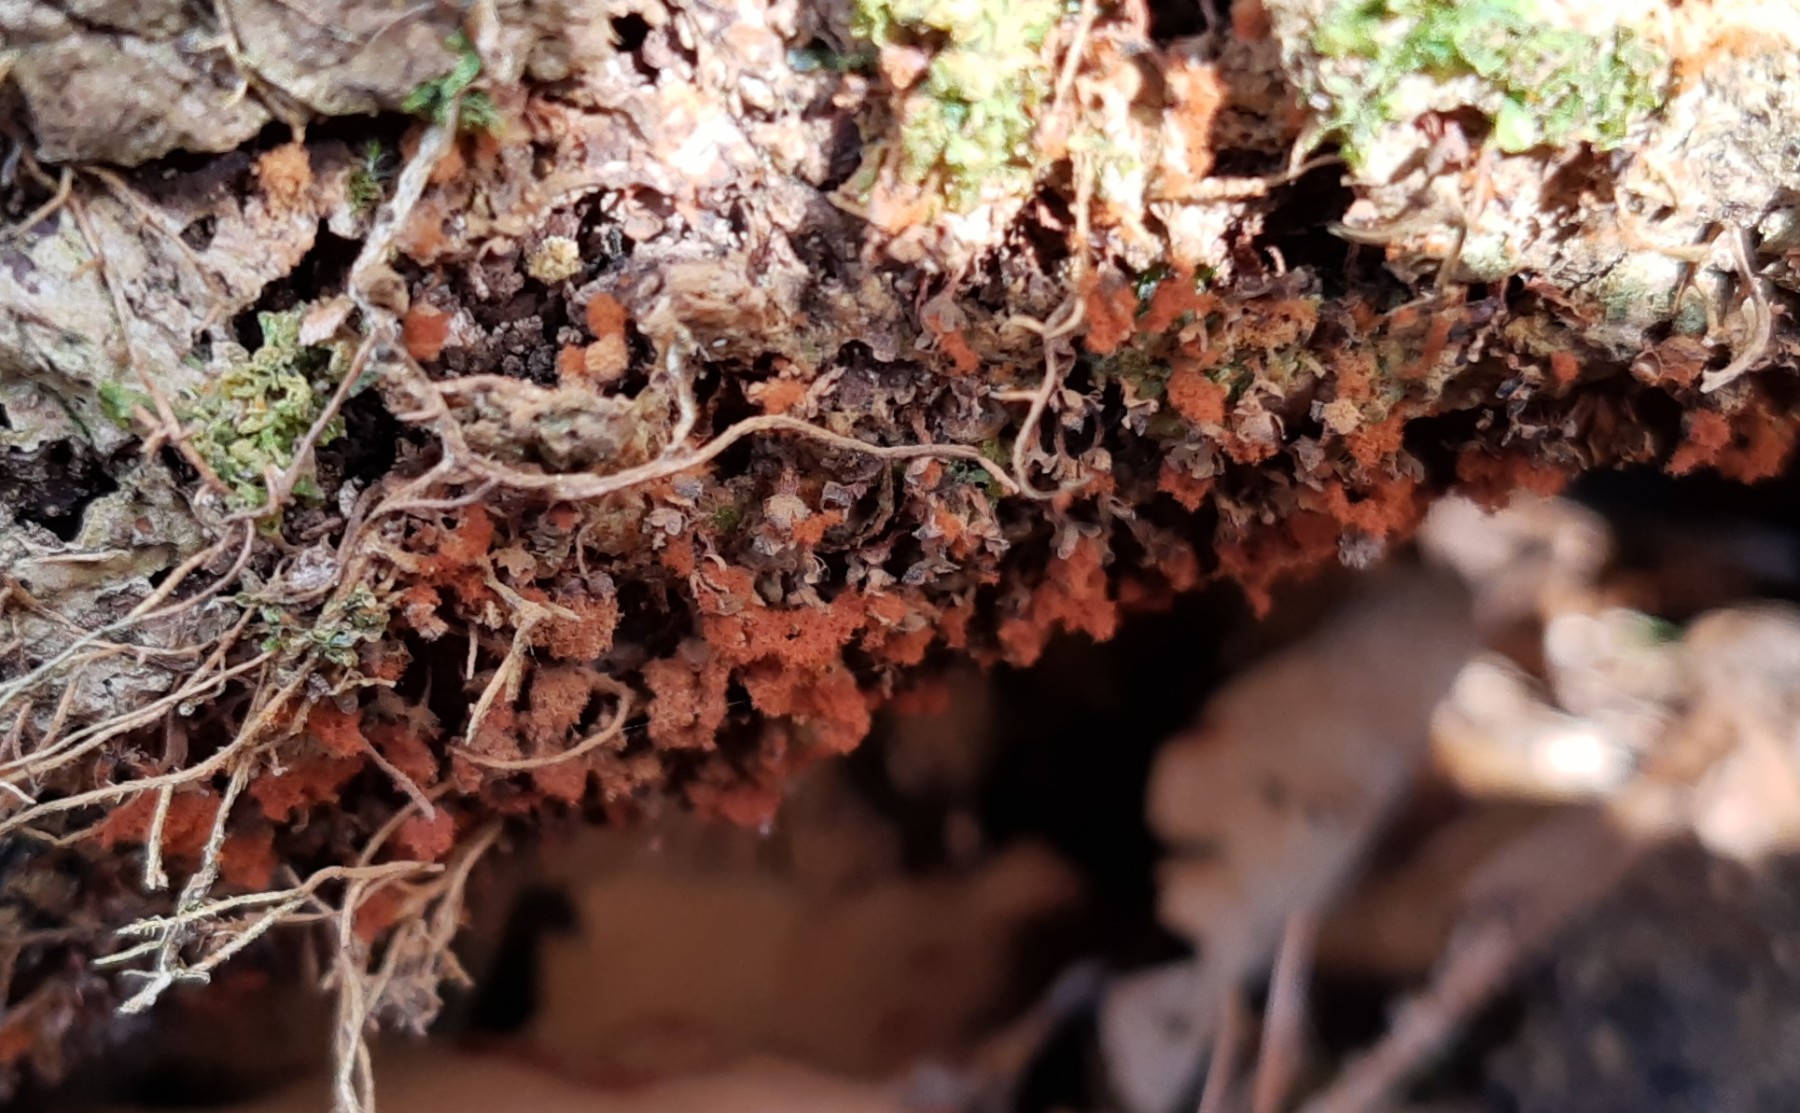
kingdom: Protozoa
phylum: Mycetozoa
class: Myxomycetes
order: Trichiales
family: Trichiaceae
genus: Metatrichia
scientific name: Metatrichia floriformis
